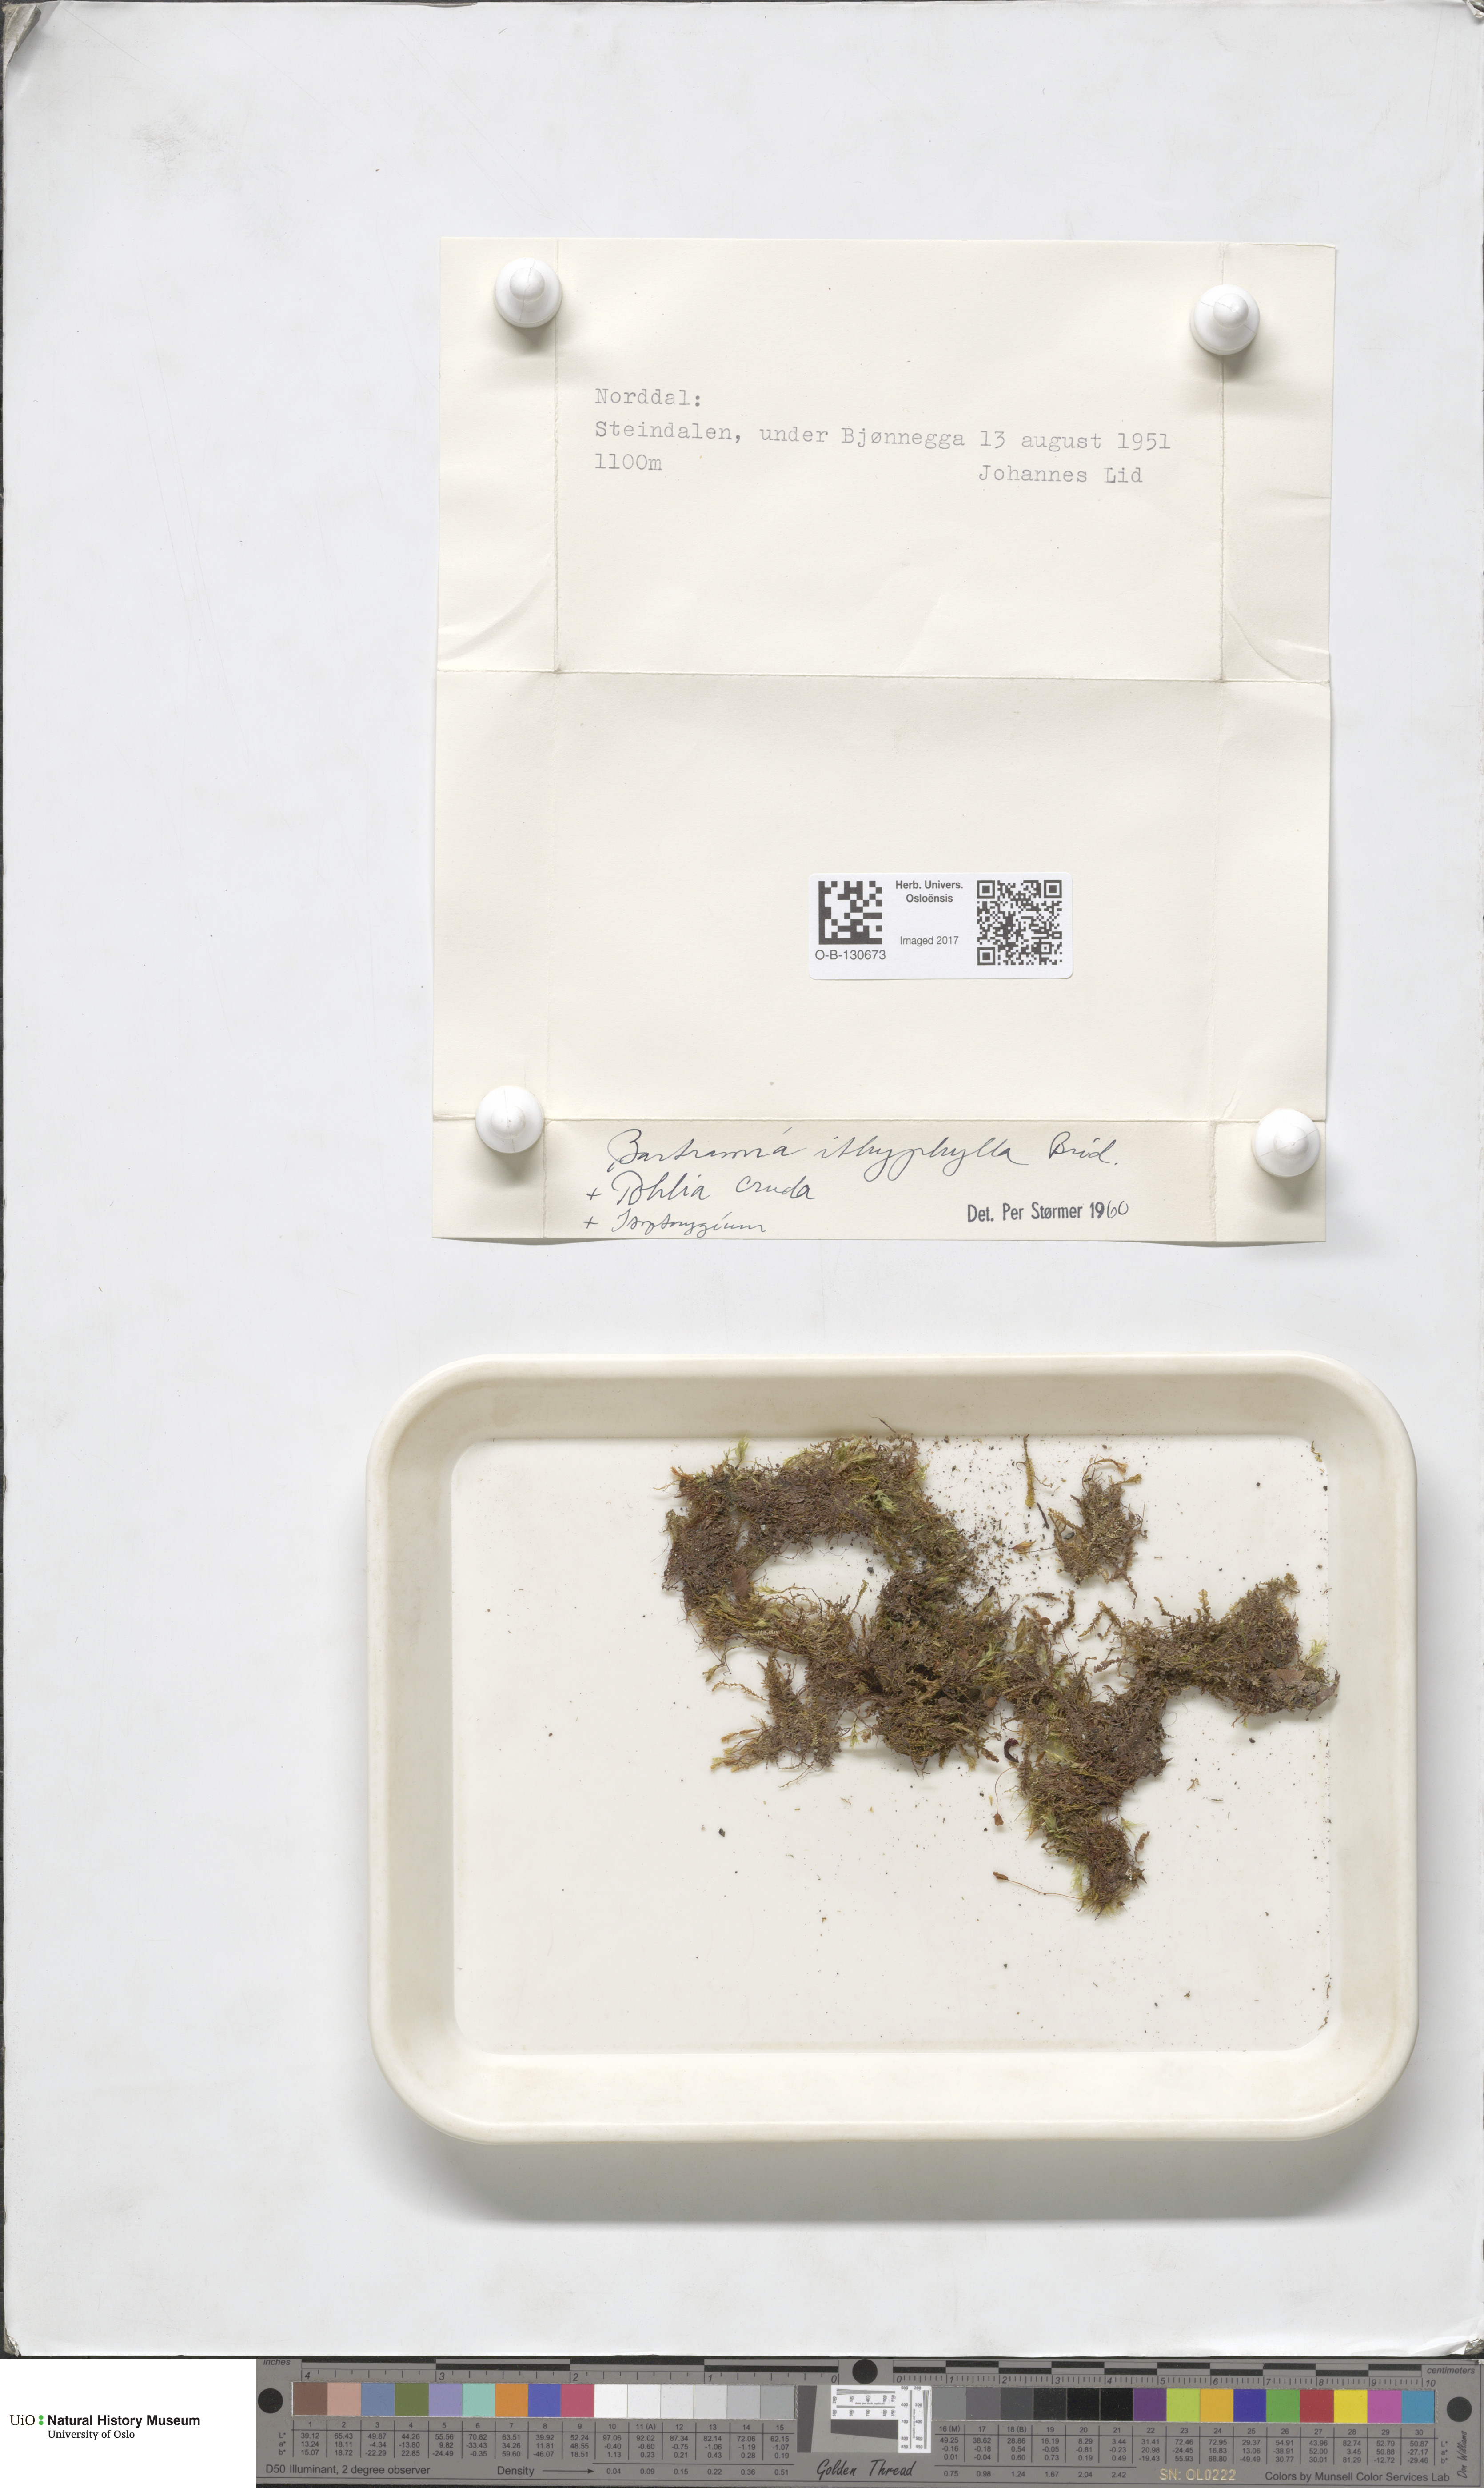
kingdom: Plantae
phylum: Bryophyta
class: Bryopsida
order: Bartramiales
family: Bartramiaceae
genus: Bartramia
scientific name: Bartramia ithyphylla
